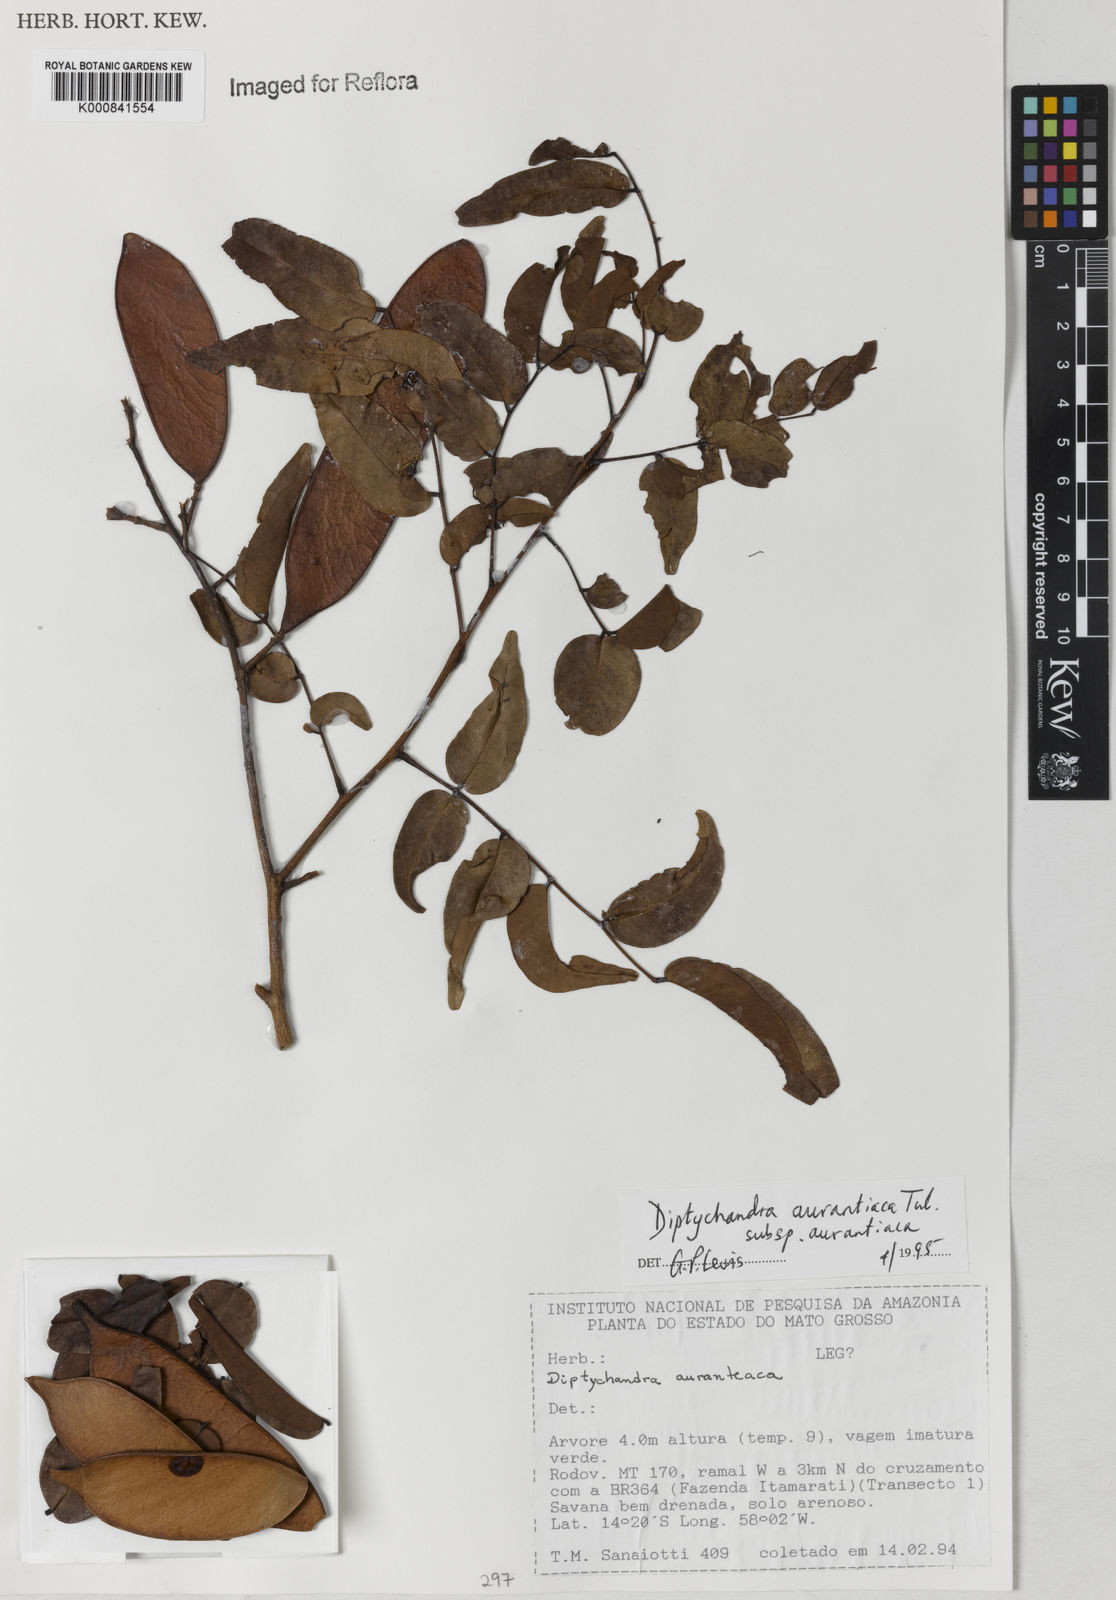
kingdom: Plantae
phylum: Tracheophyta
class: Magnoliopsida
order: Fabales
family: Fabaceae
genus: Diptychandra
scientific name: Diptychandra aurantiaca
